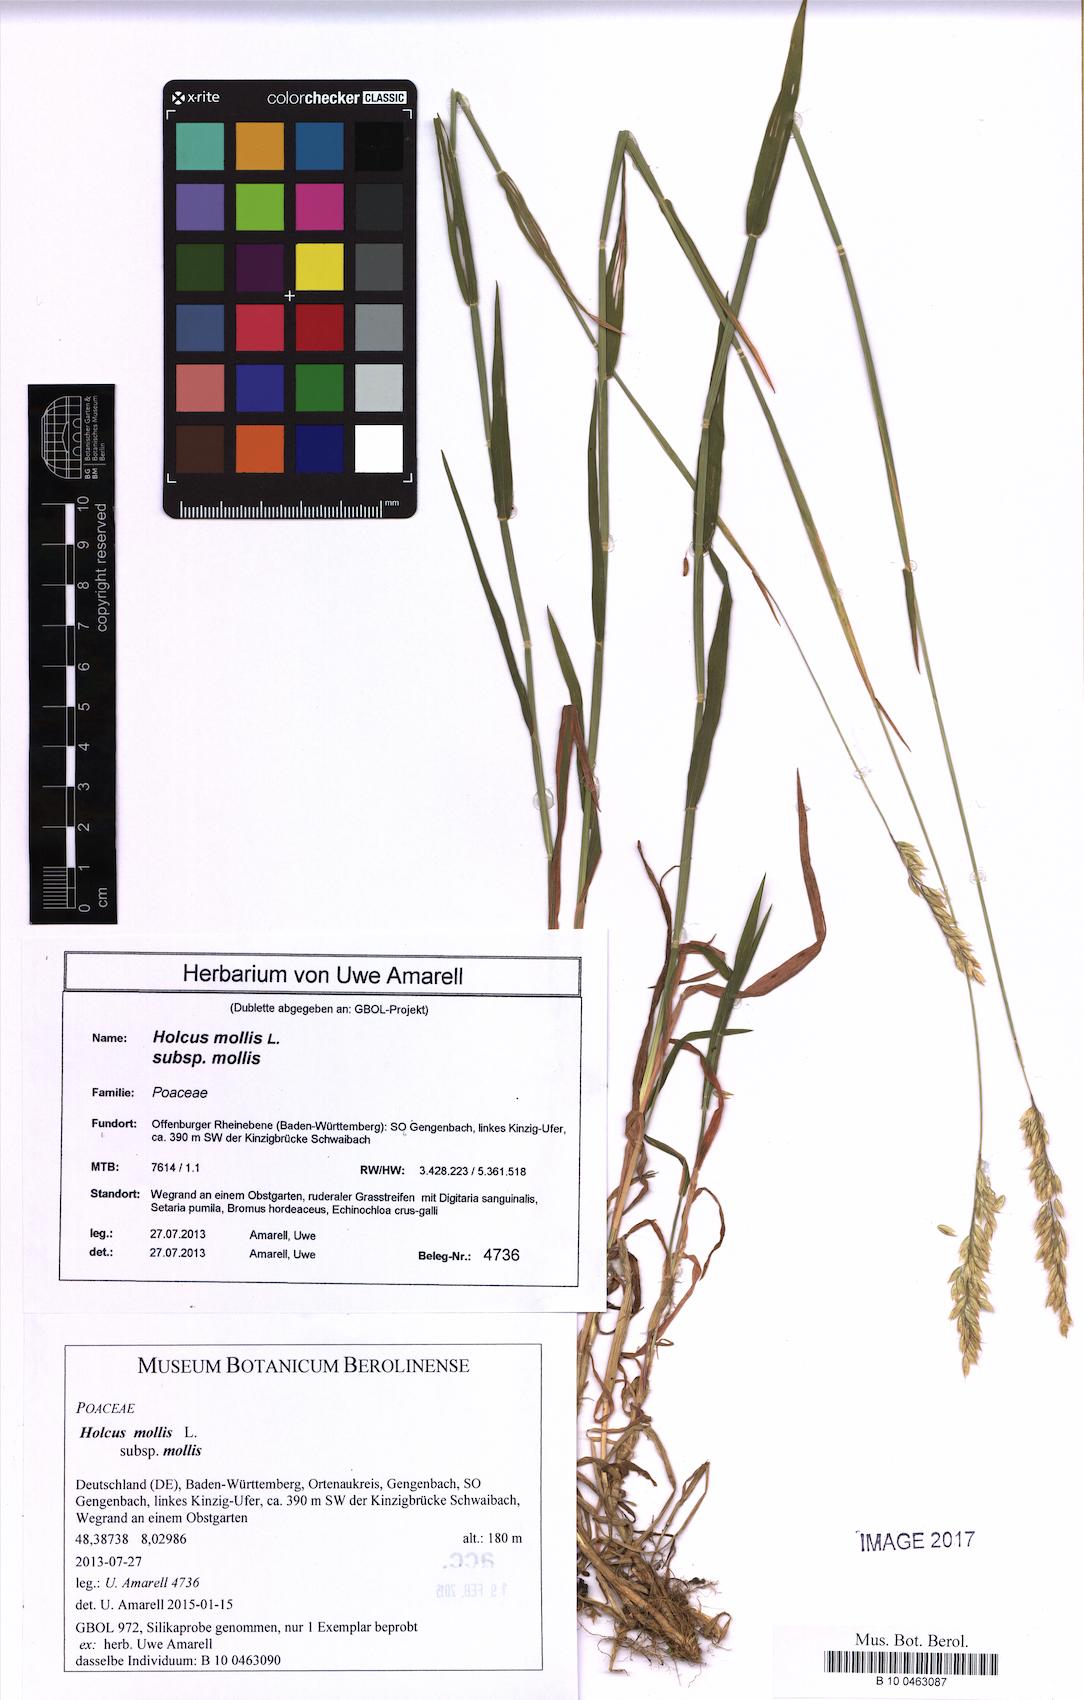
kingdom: Plantae
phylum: Tracheophyta
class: Liliopsida
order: Poales
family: Poaceae
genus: Holcus
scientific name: Holcus mollis
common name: Creeping velvetgrass
